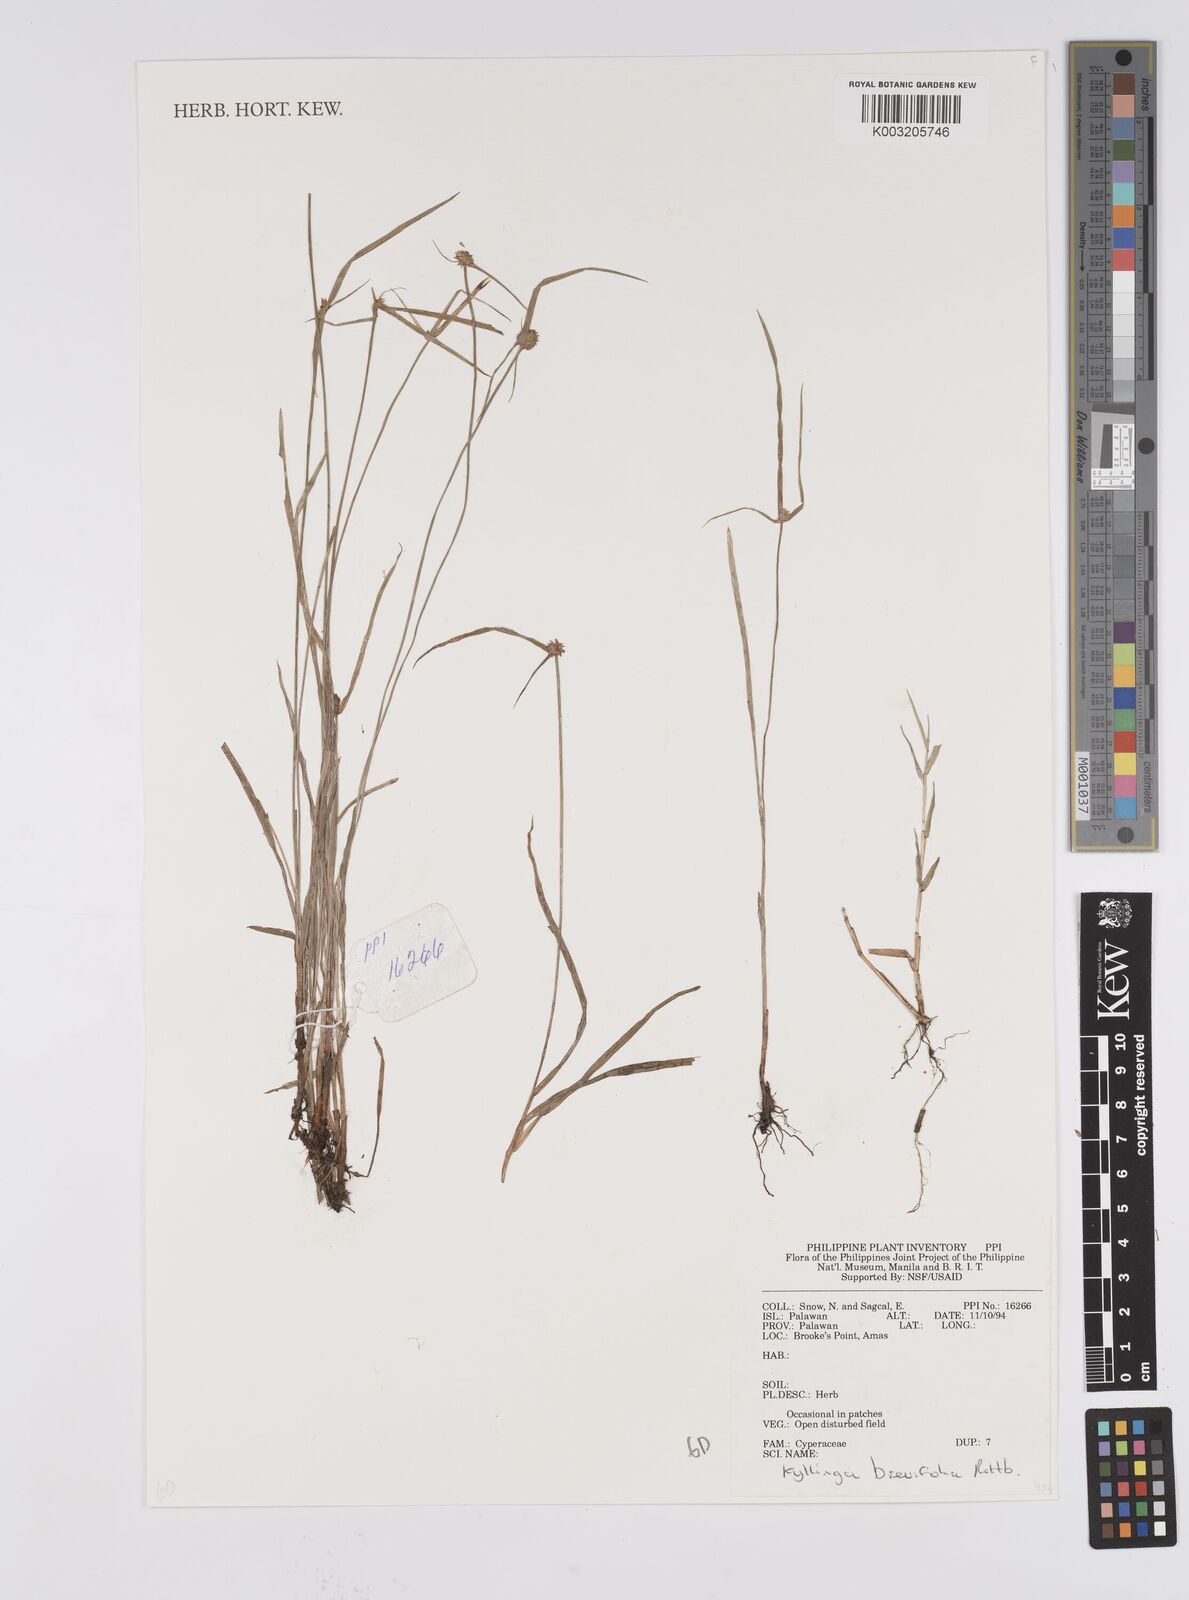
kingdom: Plantae
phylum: Tracheophyta
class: Liliopsida
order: Poales
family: Cyperaceae
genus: Cyperus
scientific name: Cyperus brevifolius
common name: Globe kyllinga
